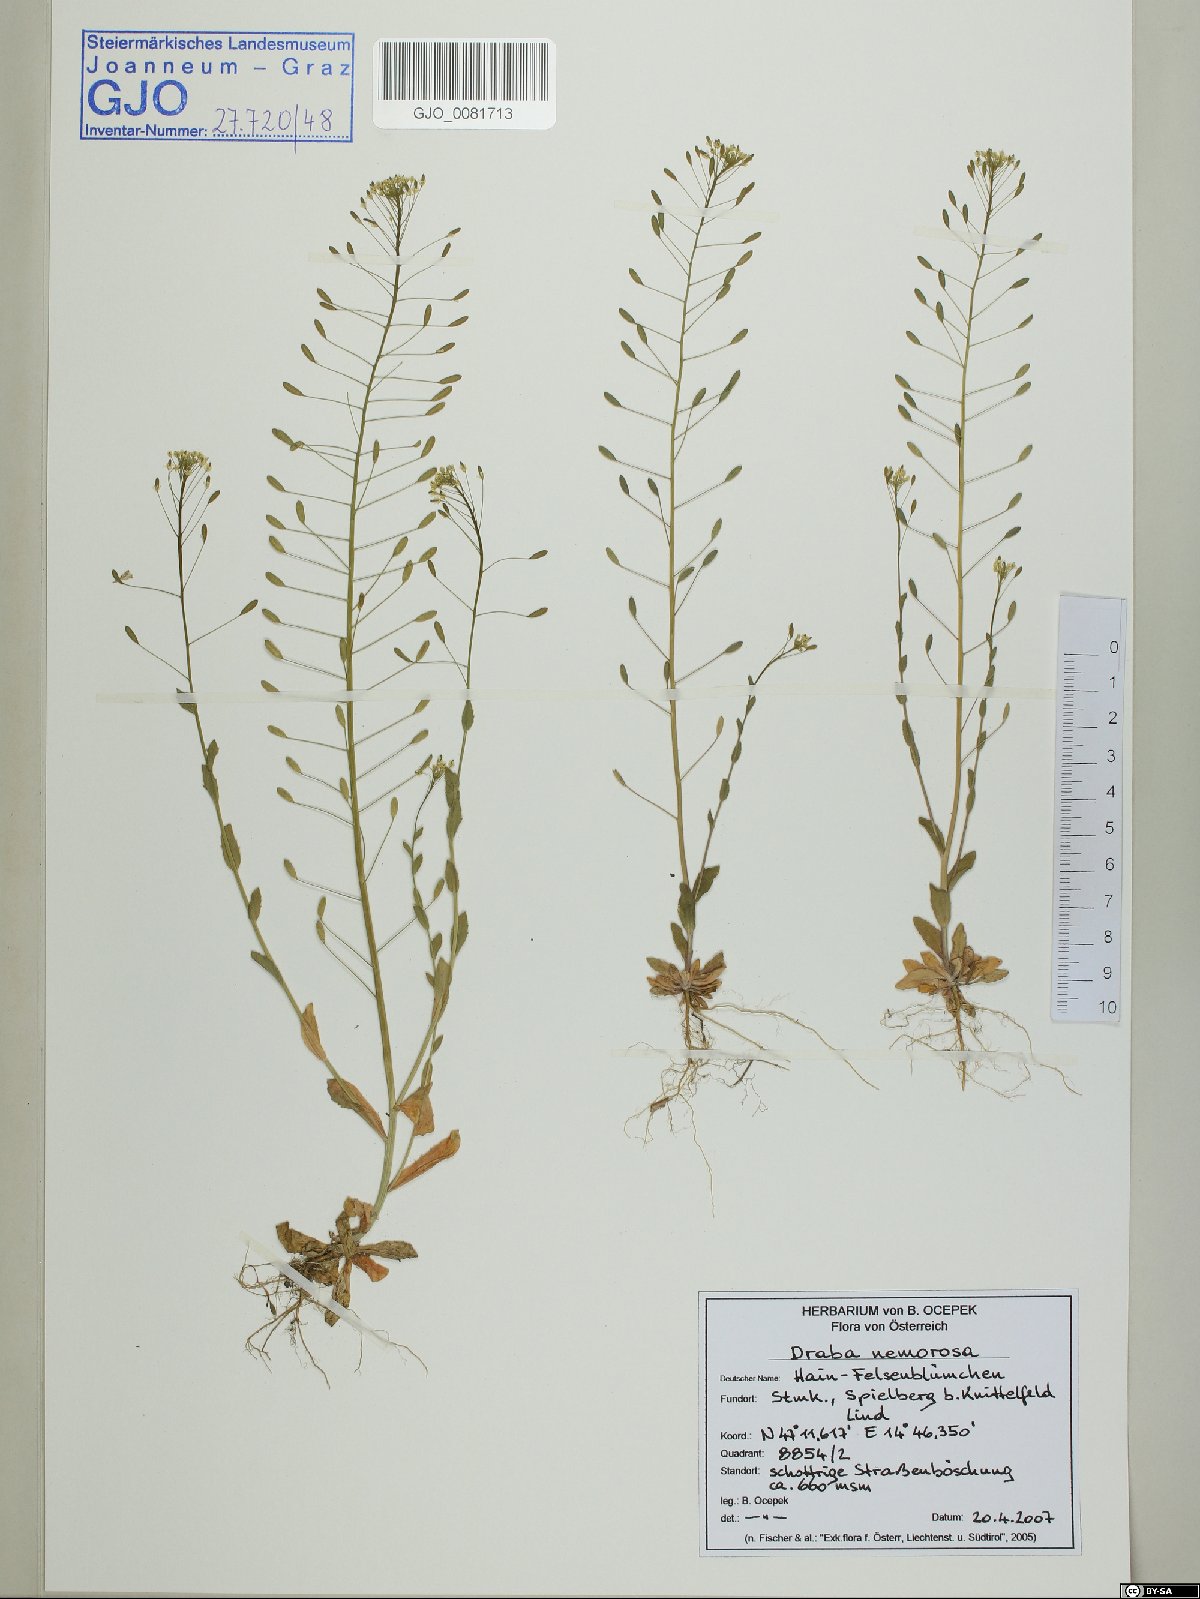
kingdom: Plantae
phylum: Tracheophyta
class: Magnoliopsida
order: Brassicales
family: Brassicaceae
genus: Draba
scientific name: Draba nemorosa
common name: Wood whitlow-grass
